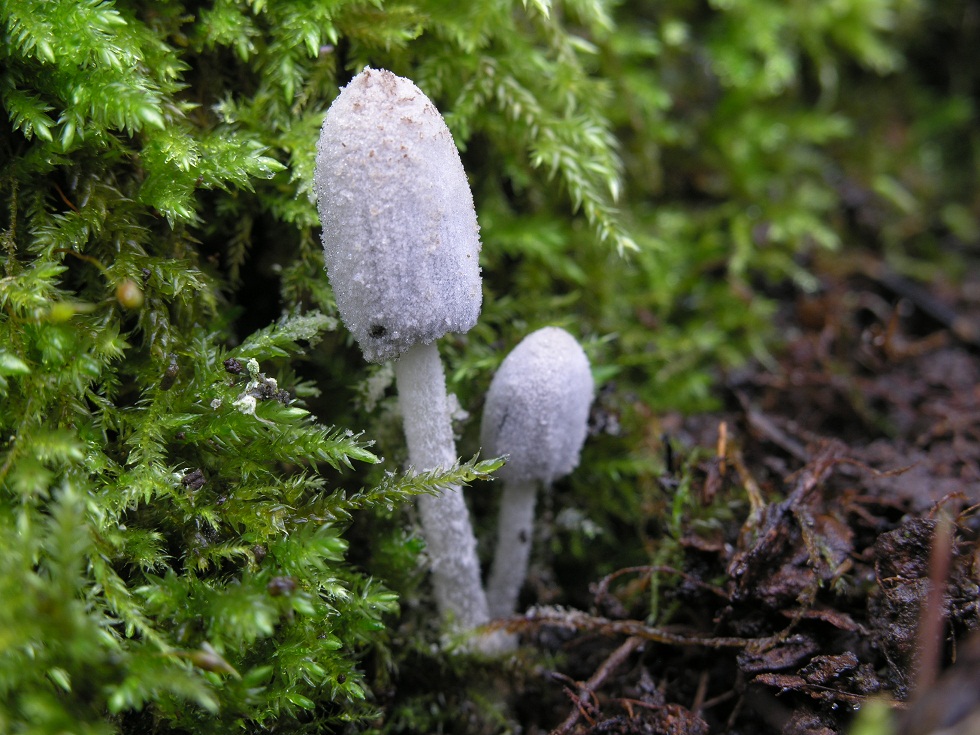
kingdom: Fungi
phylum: Basidiomycota
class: Agaricomycetes
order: Agaricales
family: Psathyrellaceae
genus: Coprinopsis
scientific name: Coprinopsis laanii
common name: stub-blækhat
